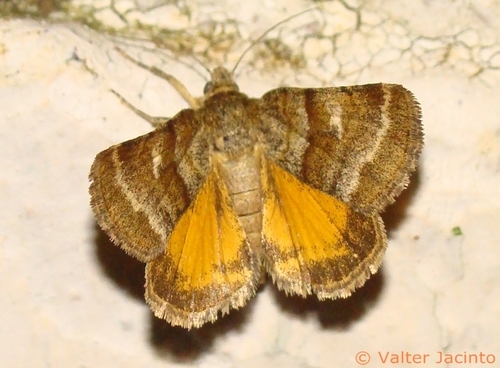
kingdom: Animalia
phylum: Arthropoda
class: Insecta
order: Lepidoptera
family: Noctuidae
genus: Synthymia
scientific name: Synthymia fixa
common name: Goldwing
